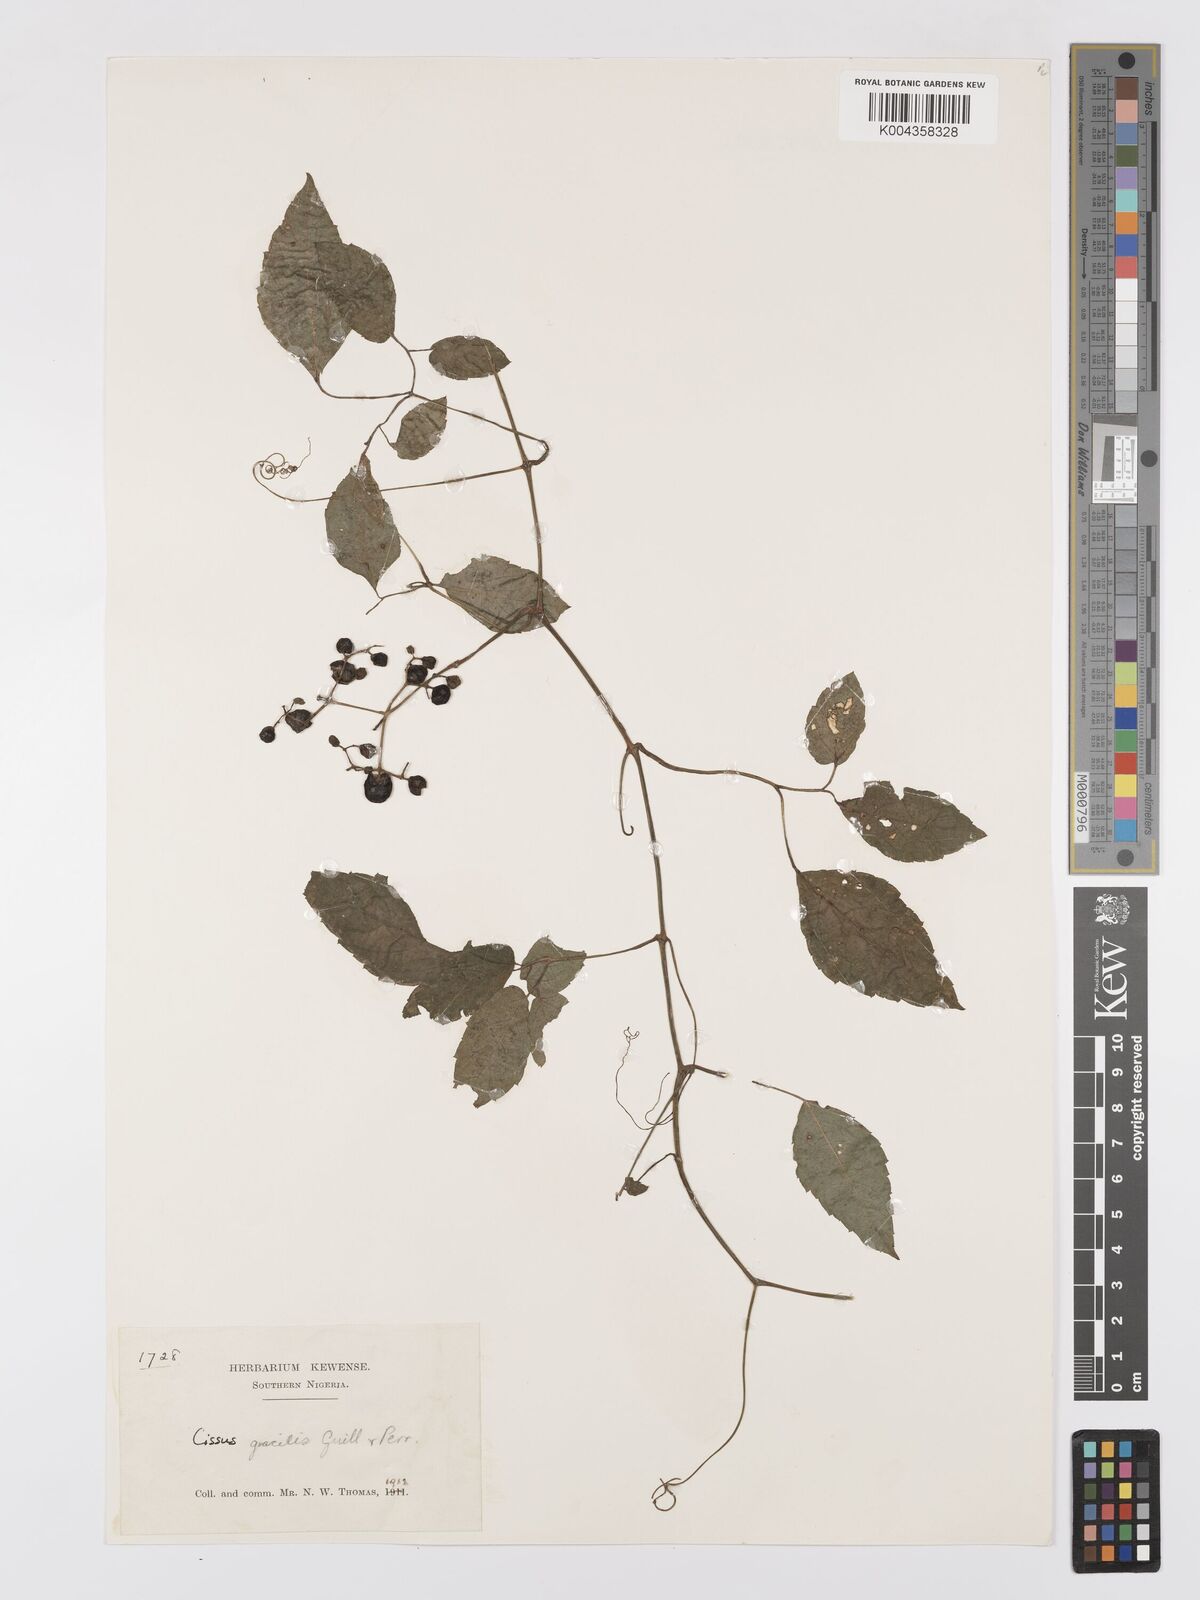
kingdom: Plantae
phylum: Tracheophyta
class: Magnoliopsida
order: Vitales
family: Vitaceae
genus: Afrocayratia
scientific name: Afrocayratia gracilis
